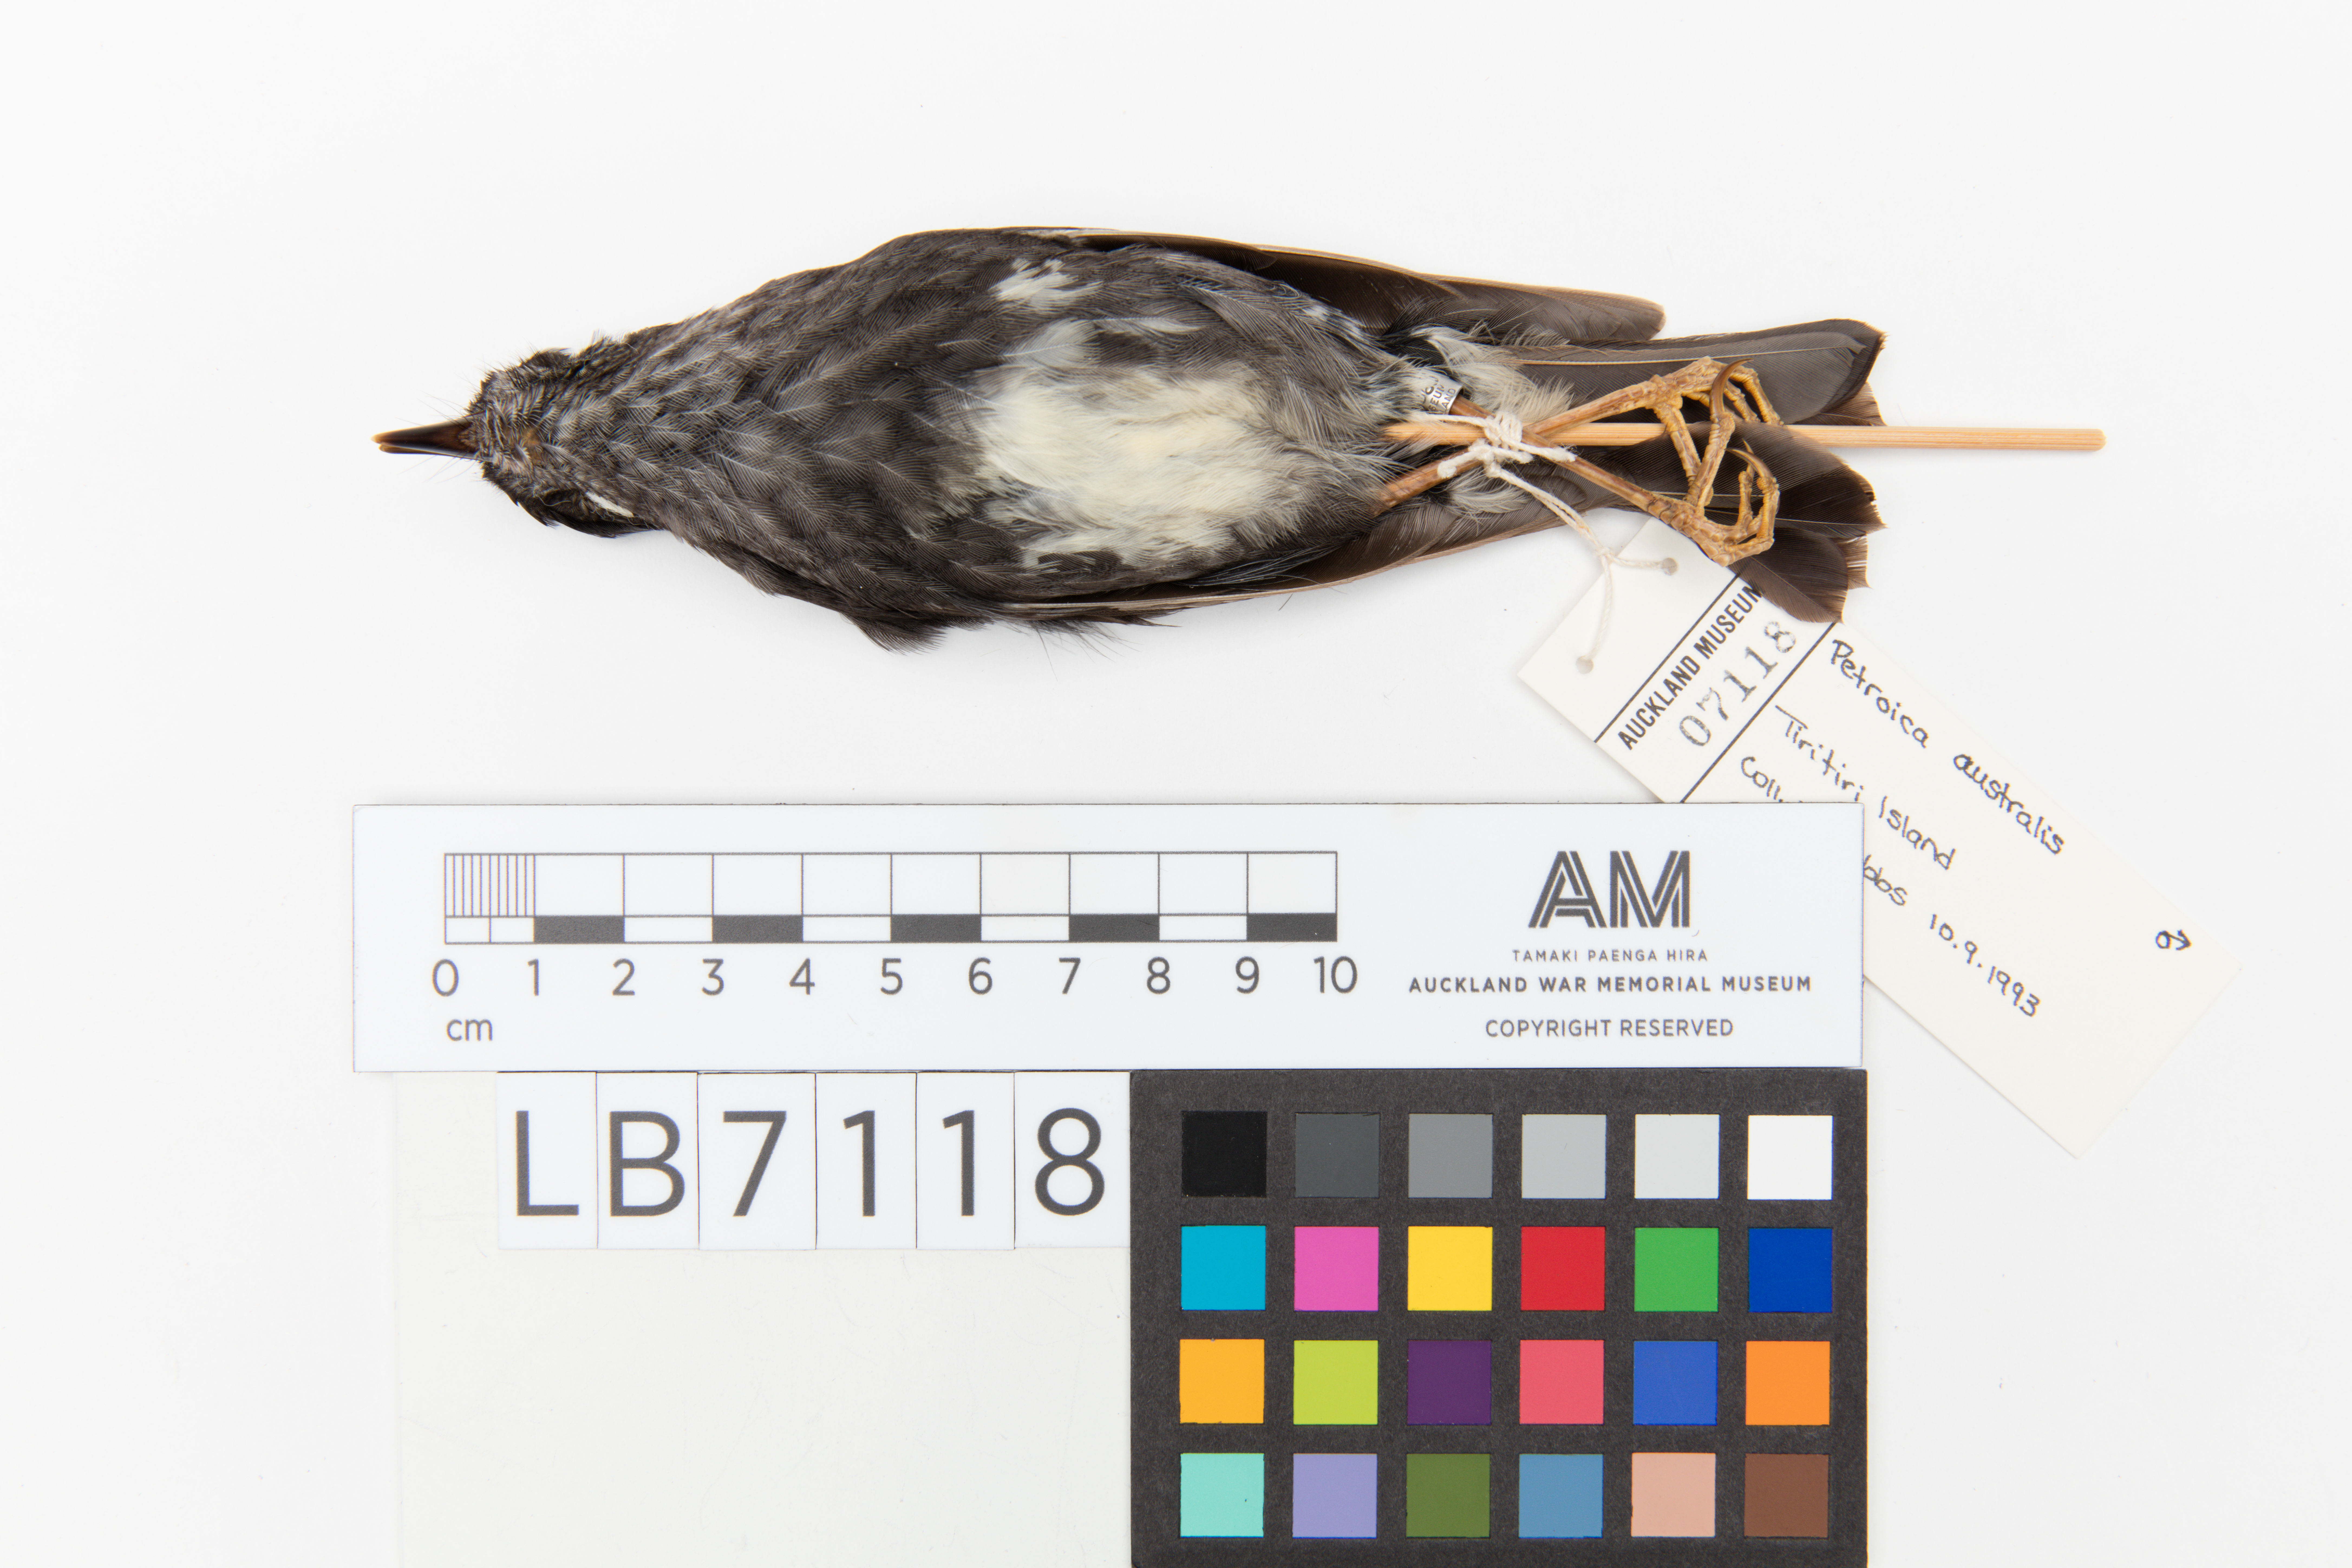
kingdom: Animalia
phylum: Chordata
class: Aves
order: Passeriformes
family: Petroicidae
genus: Petroica
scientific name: Petroica australis
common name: New zealand robin
